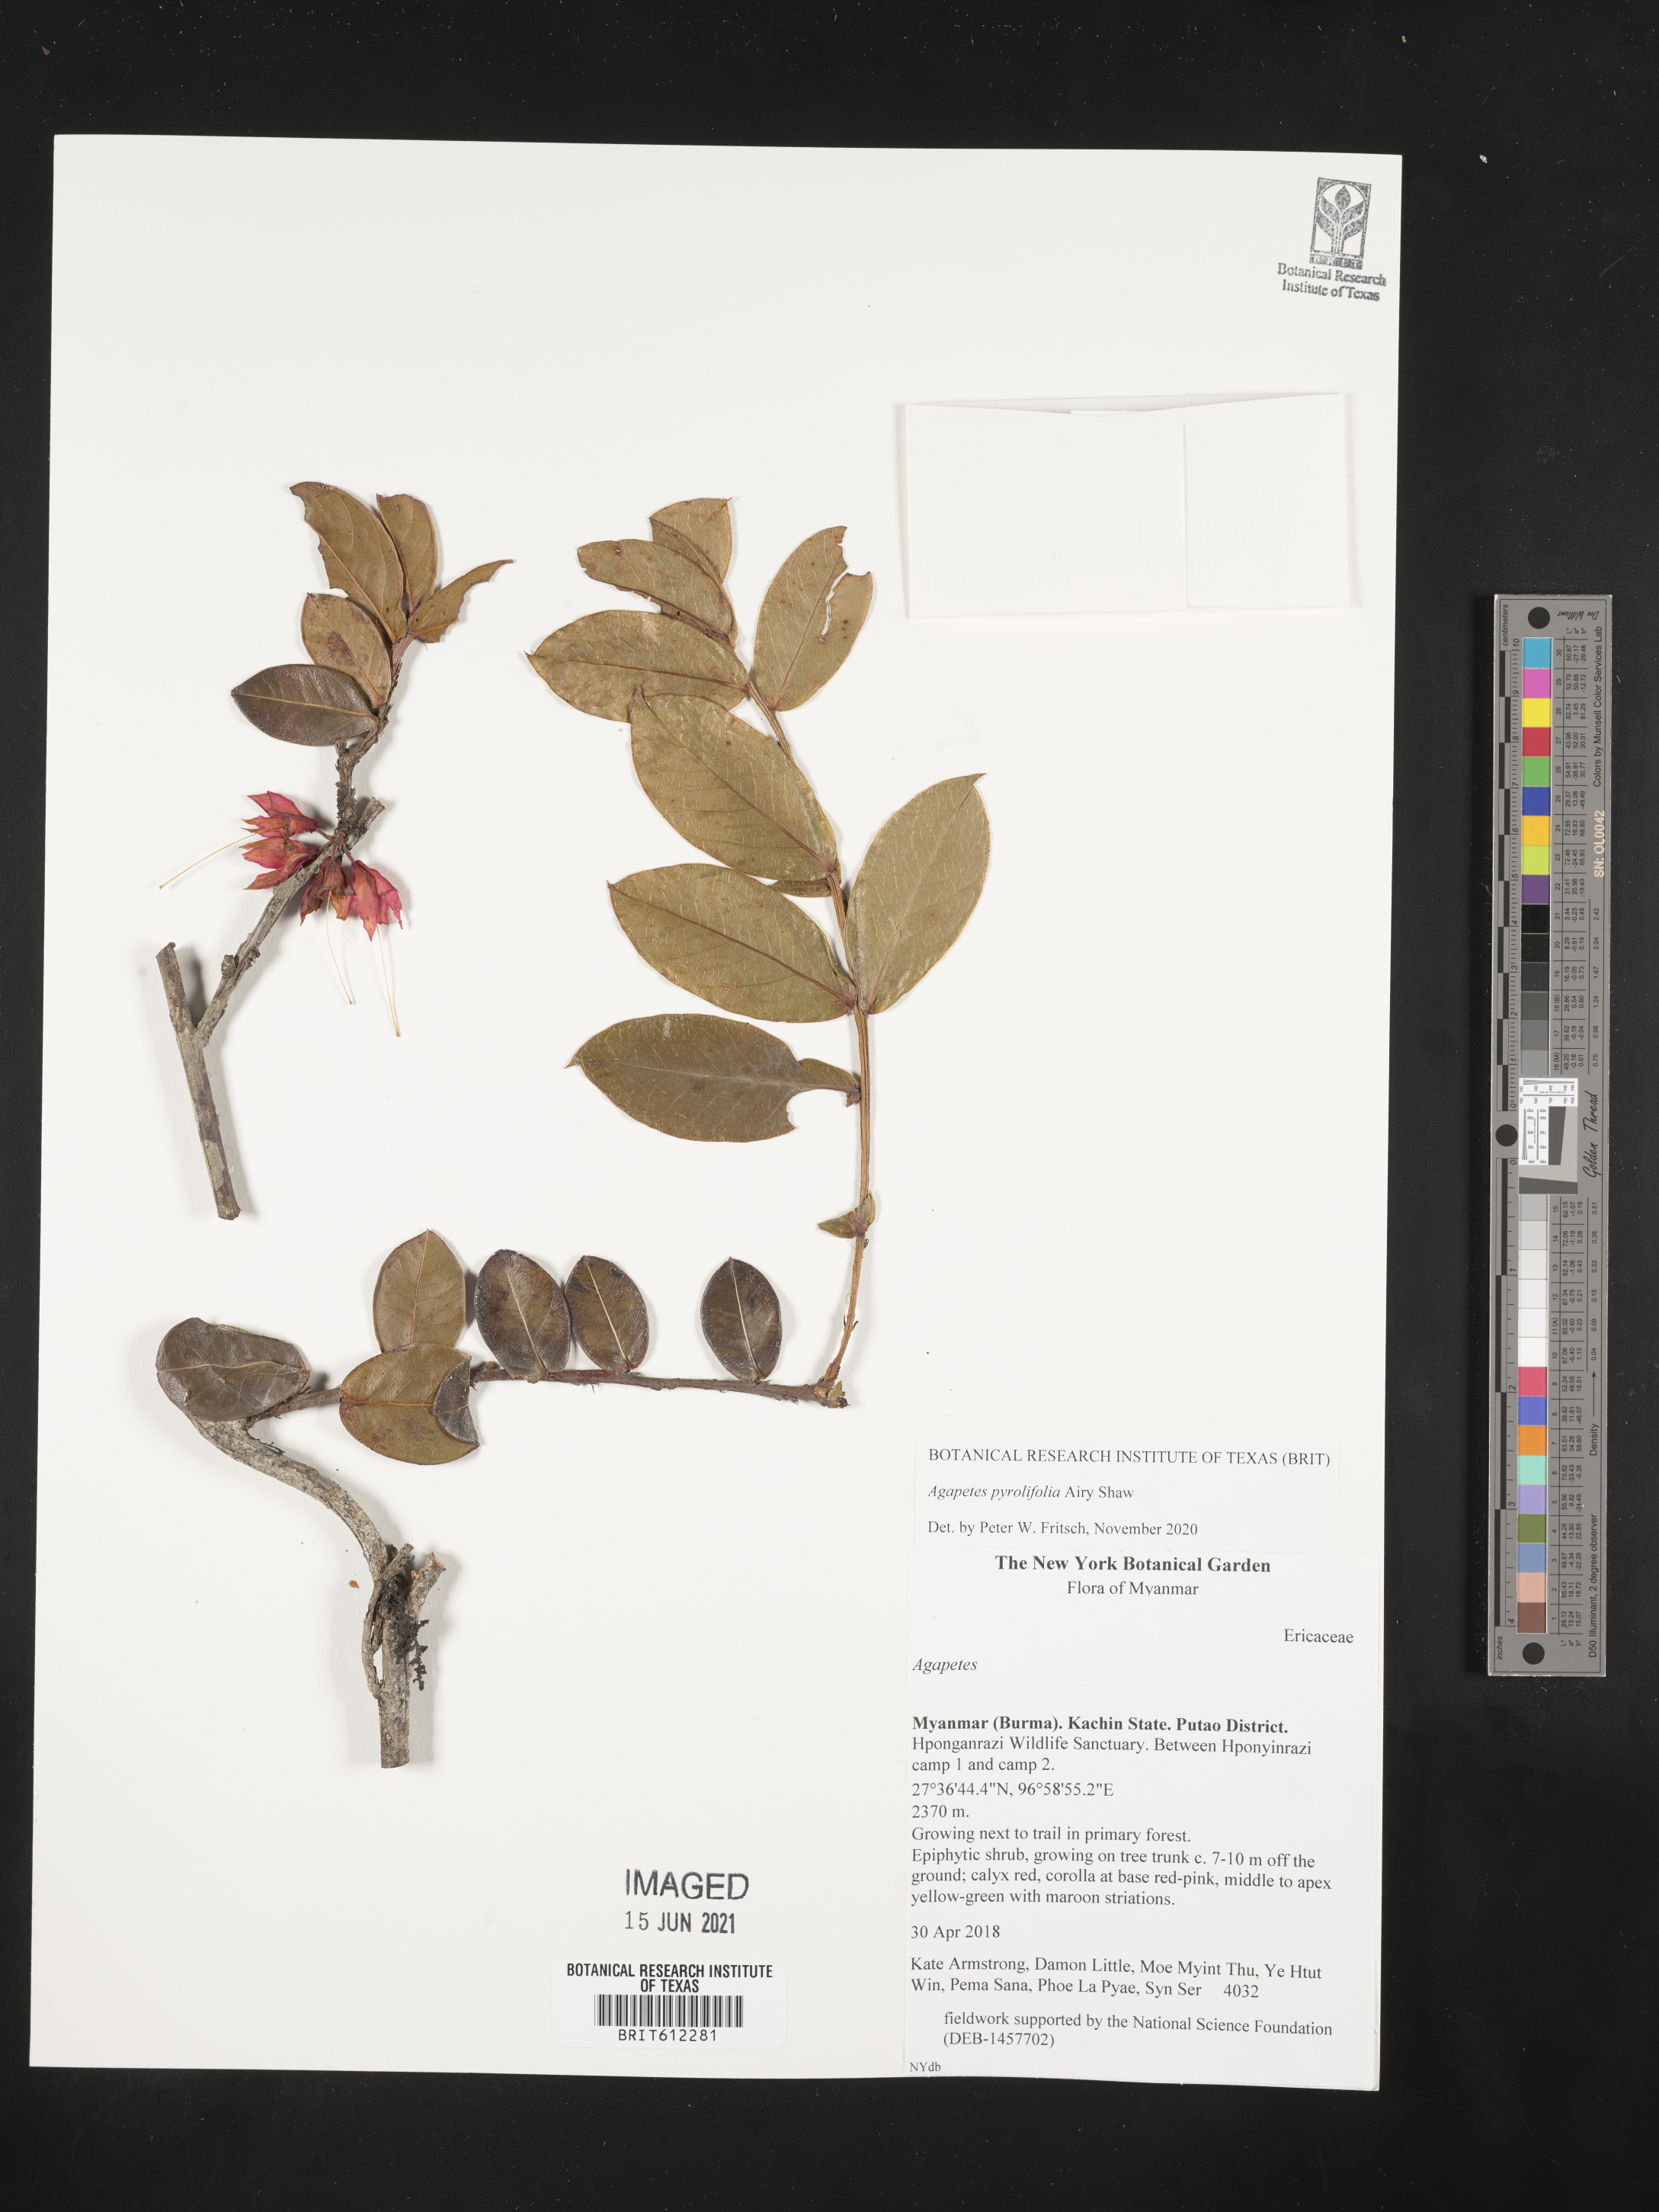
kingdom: Plantae
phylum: Tracheophyta
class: Magnoliopsida
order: Ericales
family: Ericaceae
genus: Agapetes
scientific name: Agapetes pyrolifolia
